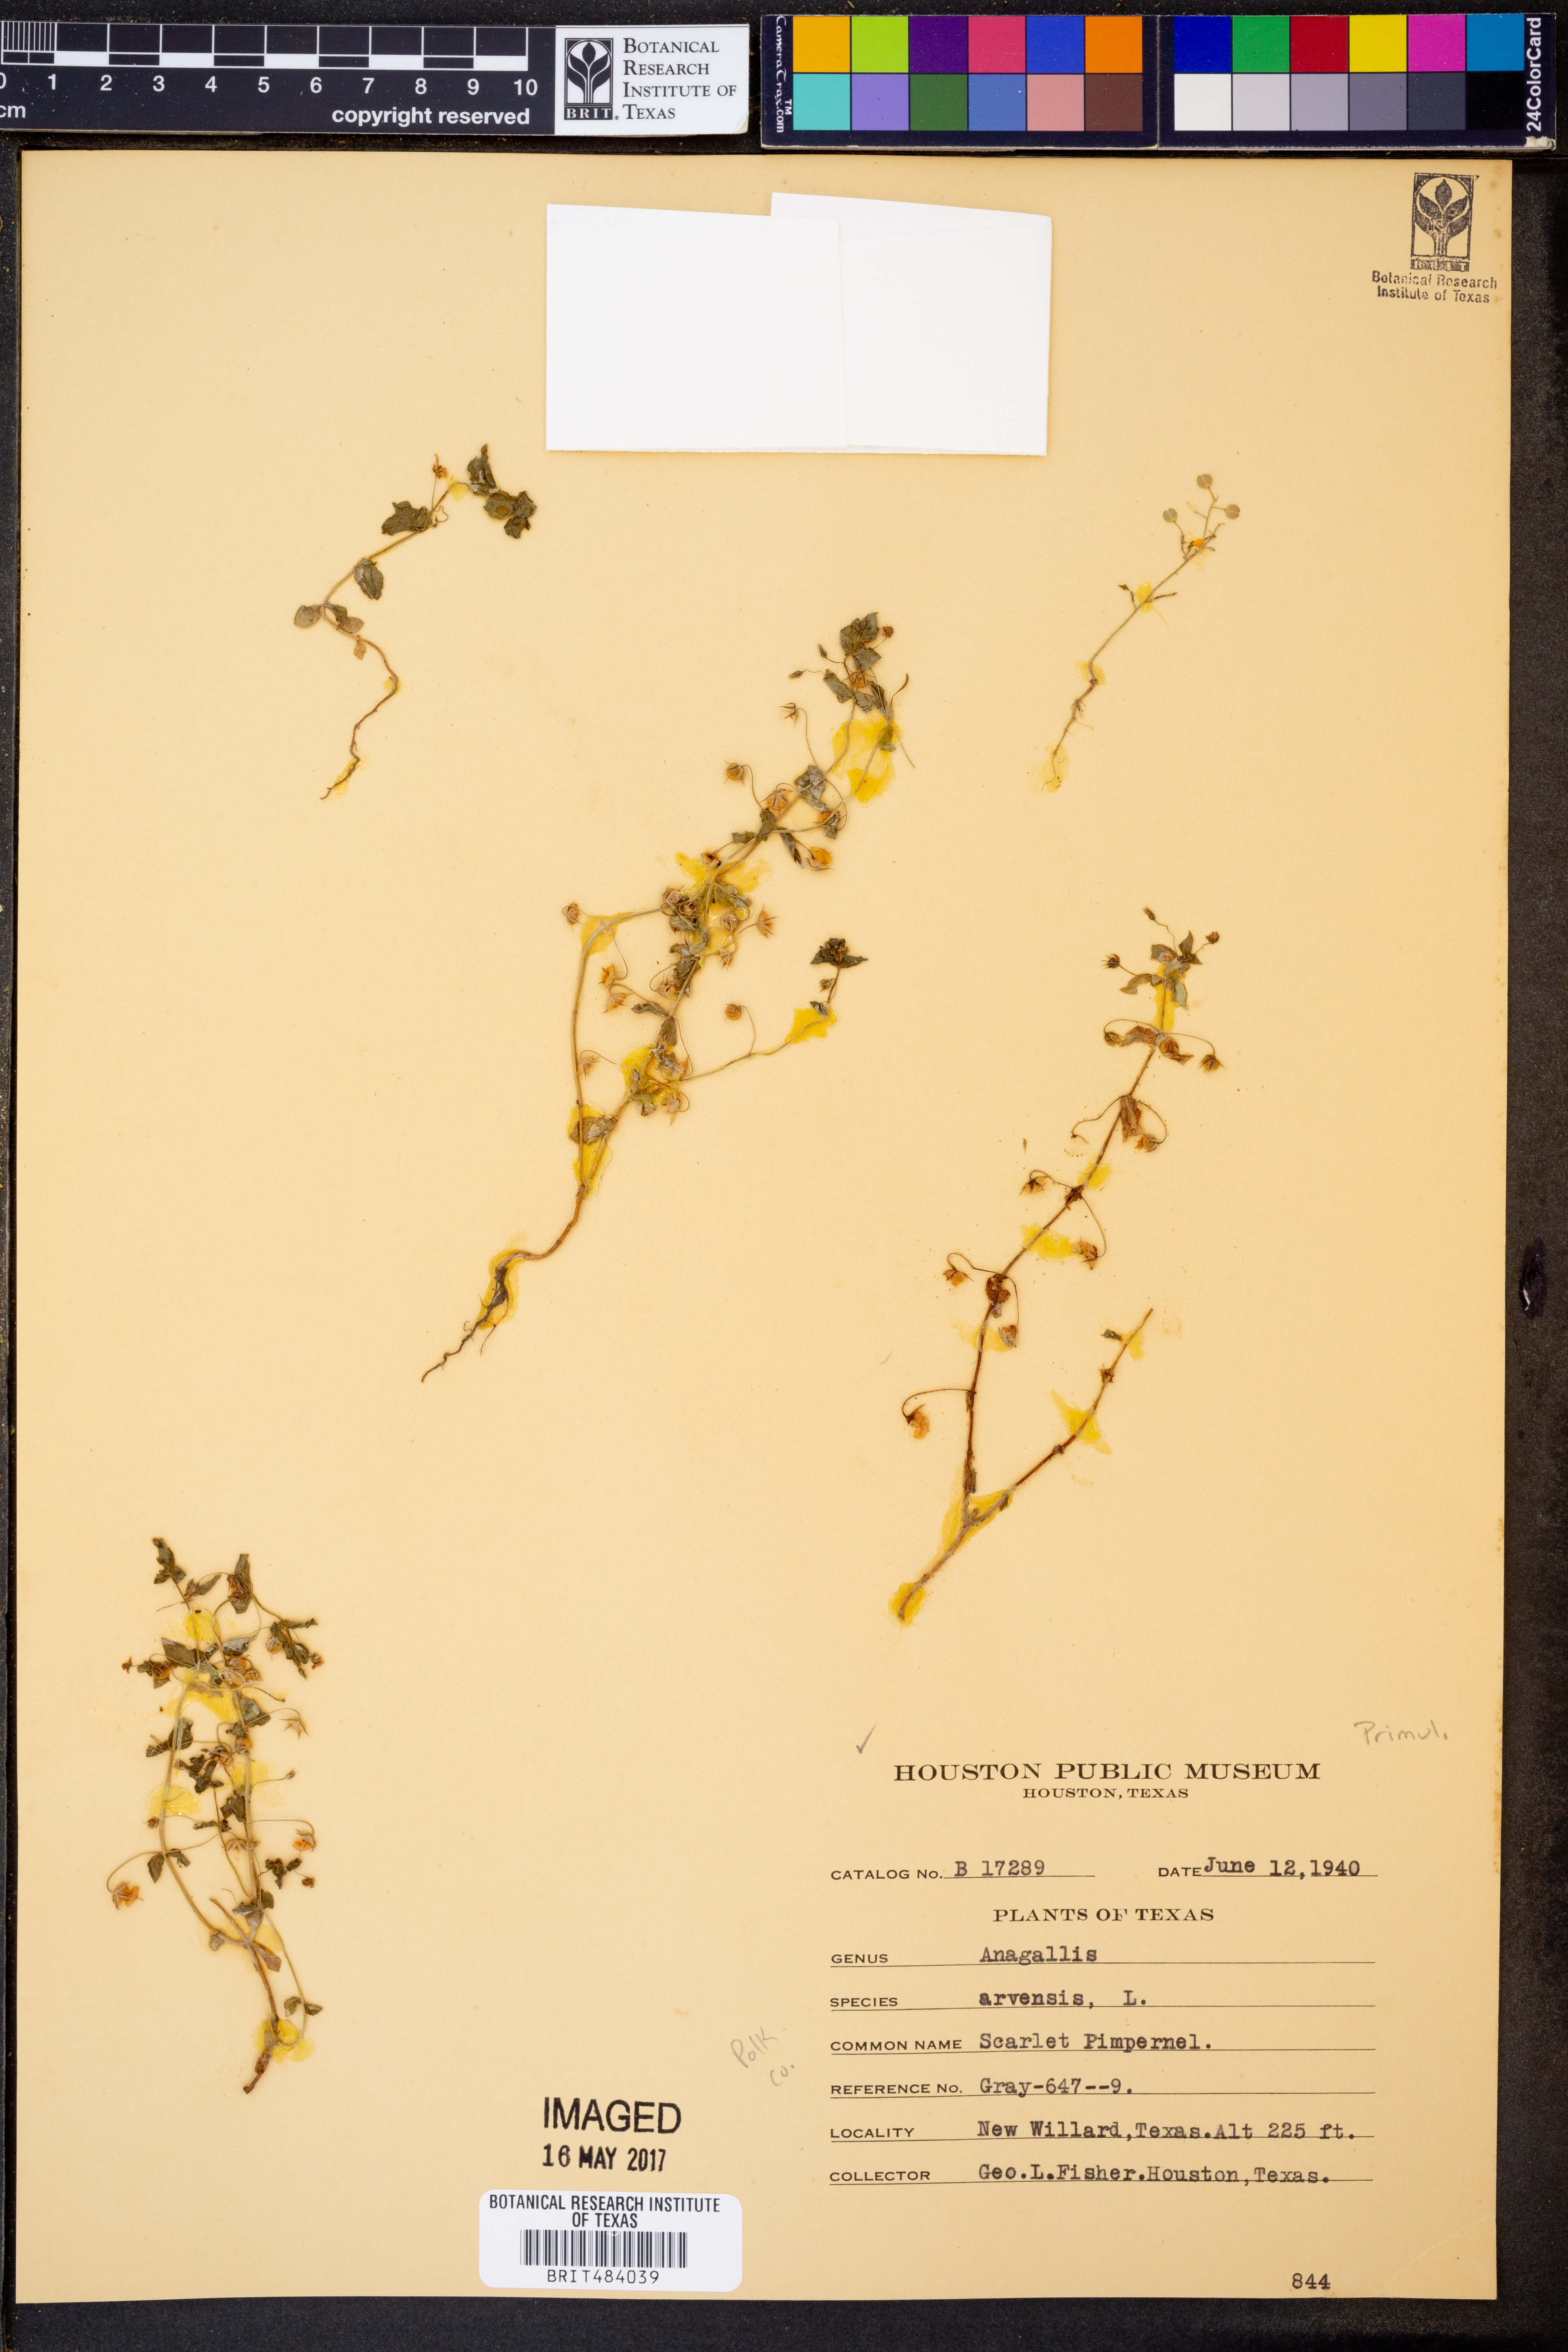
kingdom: Plantae
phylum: Tracheophyta
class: Magnoliopsida
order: Ericales
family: Primulaceae
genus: Lysimachia
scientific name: Lysimachia arvensis
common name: Scarlet pimpernel
